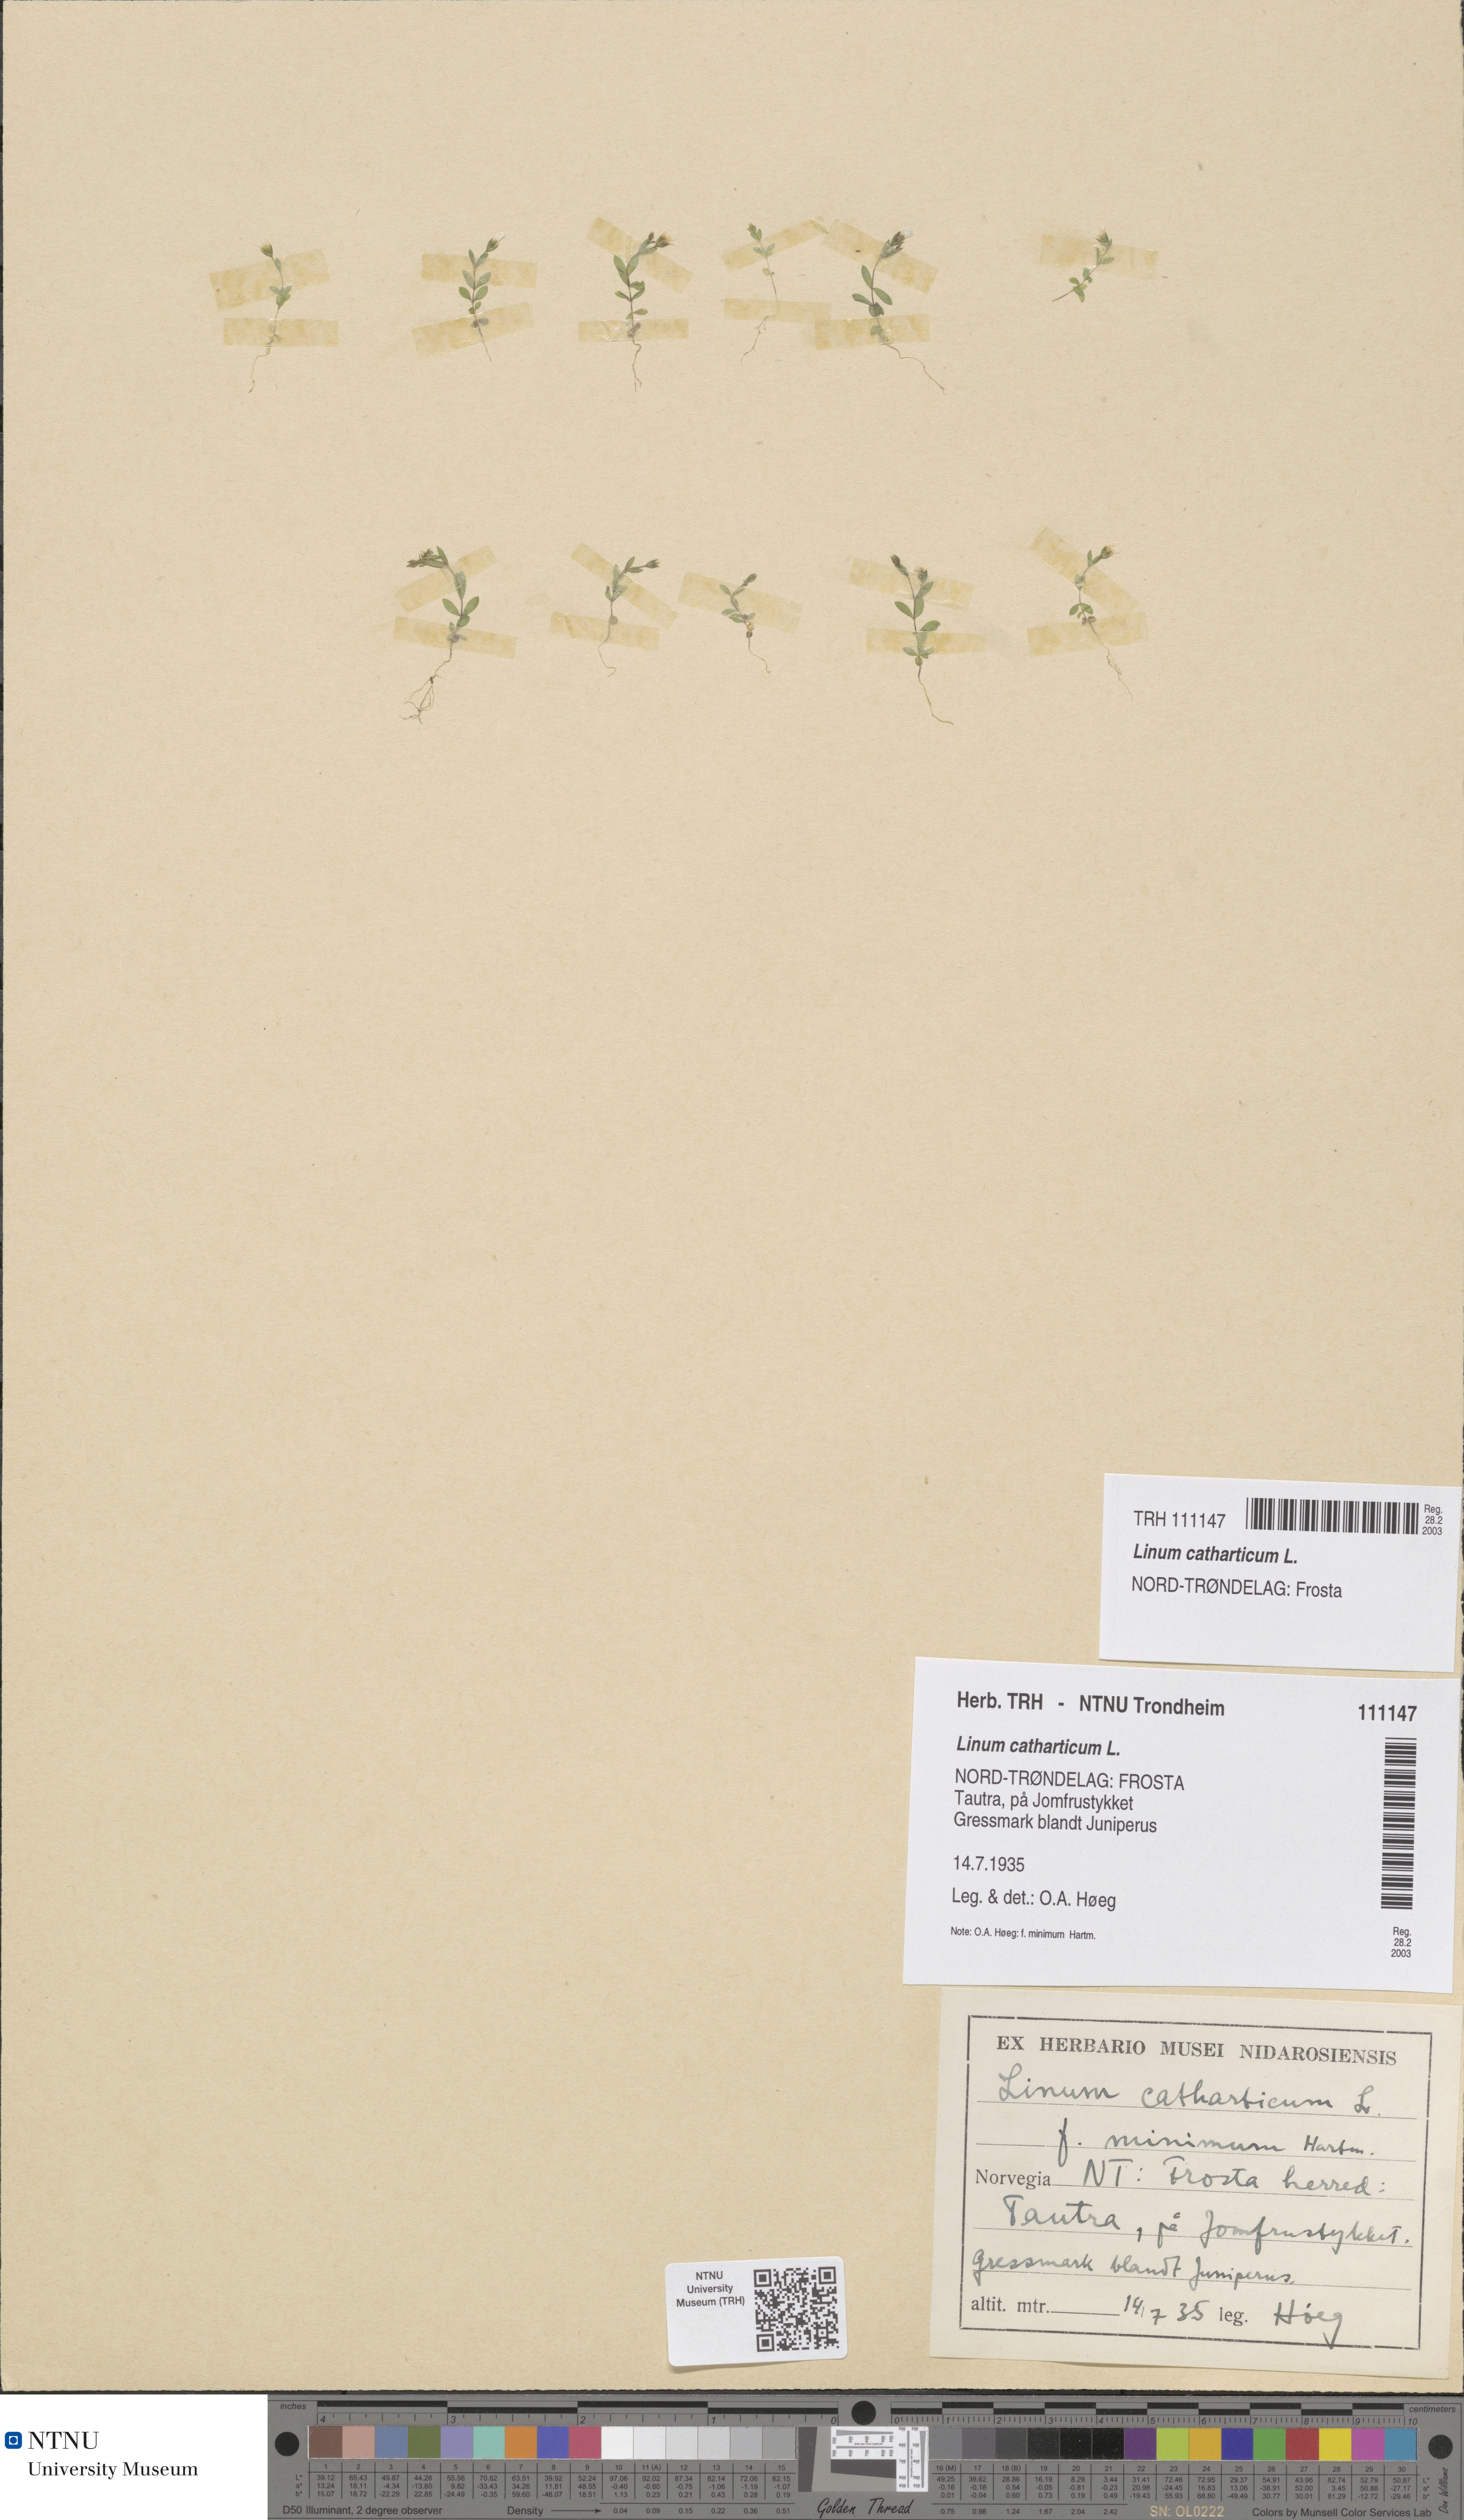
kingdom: Plantae
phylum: Tracheophyta
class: Magnoliopsida
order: Malpighiales
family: Linaceae
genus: Linum
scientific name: Linum catharticum
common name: Fairy flax
